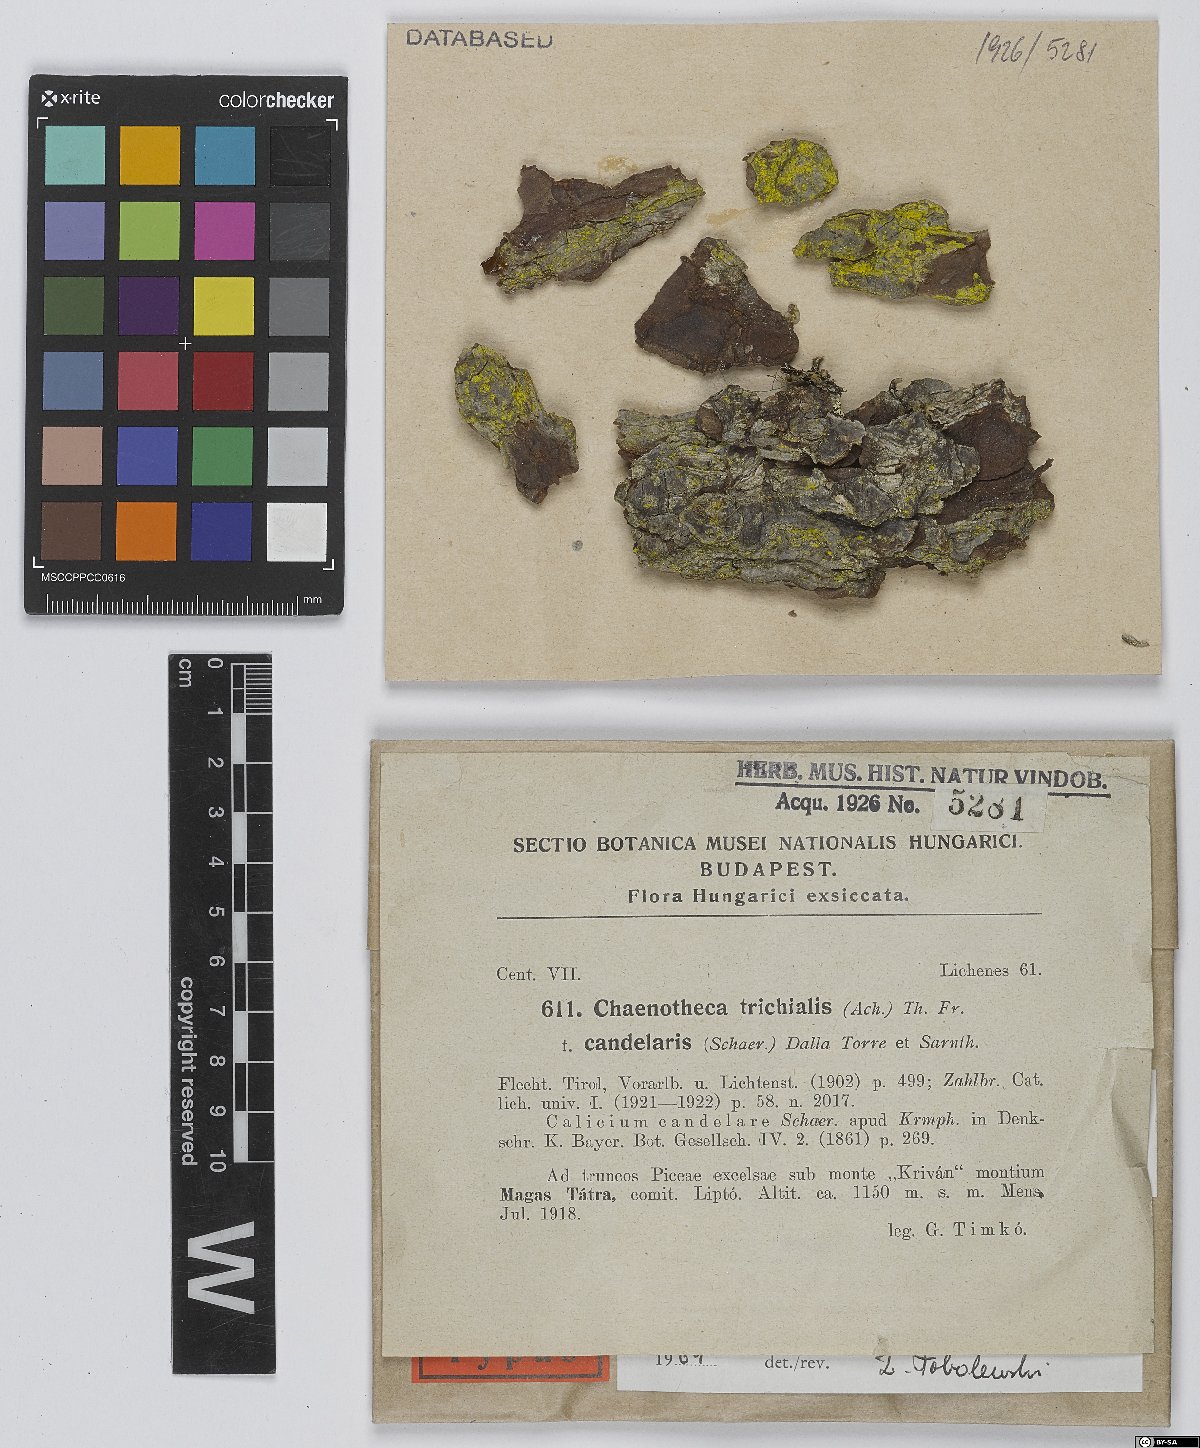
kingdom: Fungi
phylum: Ascomycota
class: Coniocybomycetes
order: Coniocybales
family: Coniocybaceae
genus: Chaenotheca
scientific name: Chaenotheca phaeocephala
